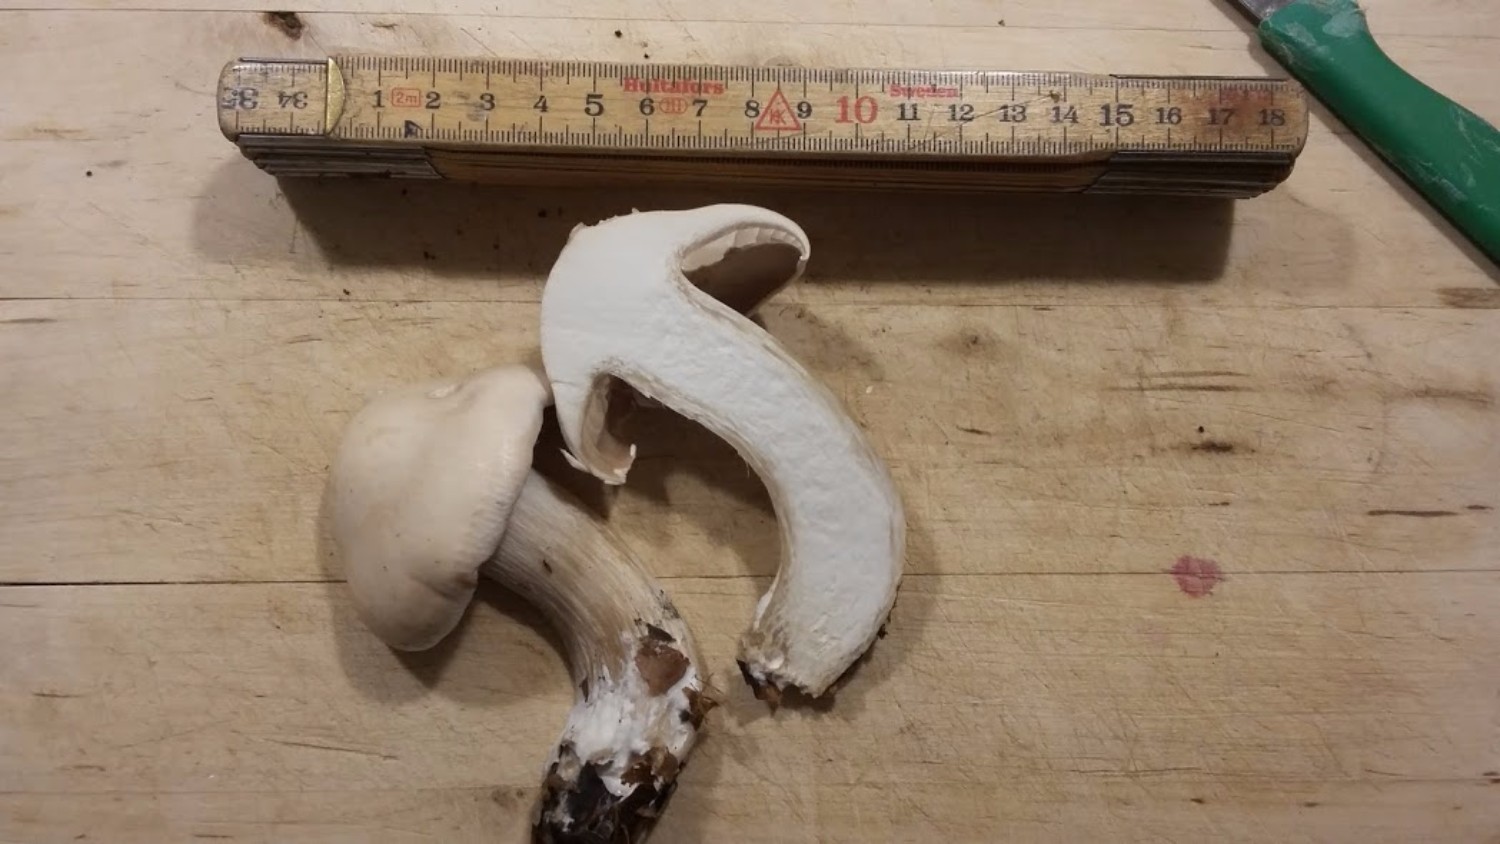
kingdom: Fungi
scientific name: Fungi
